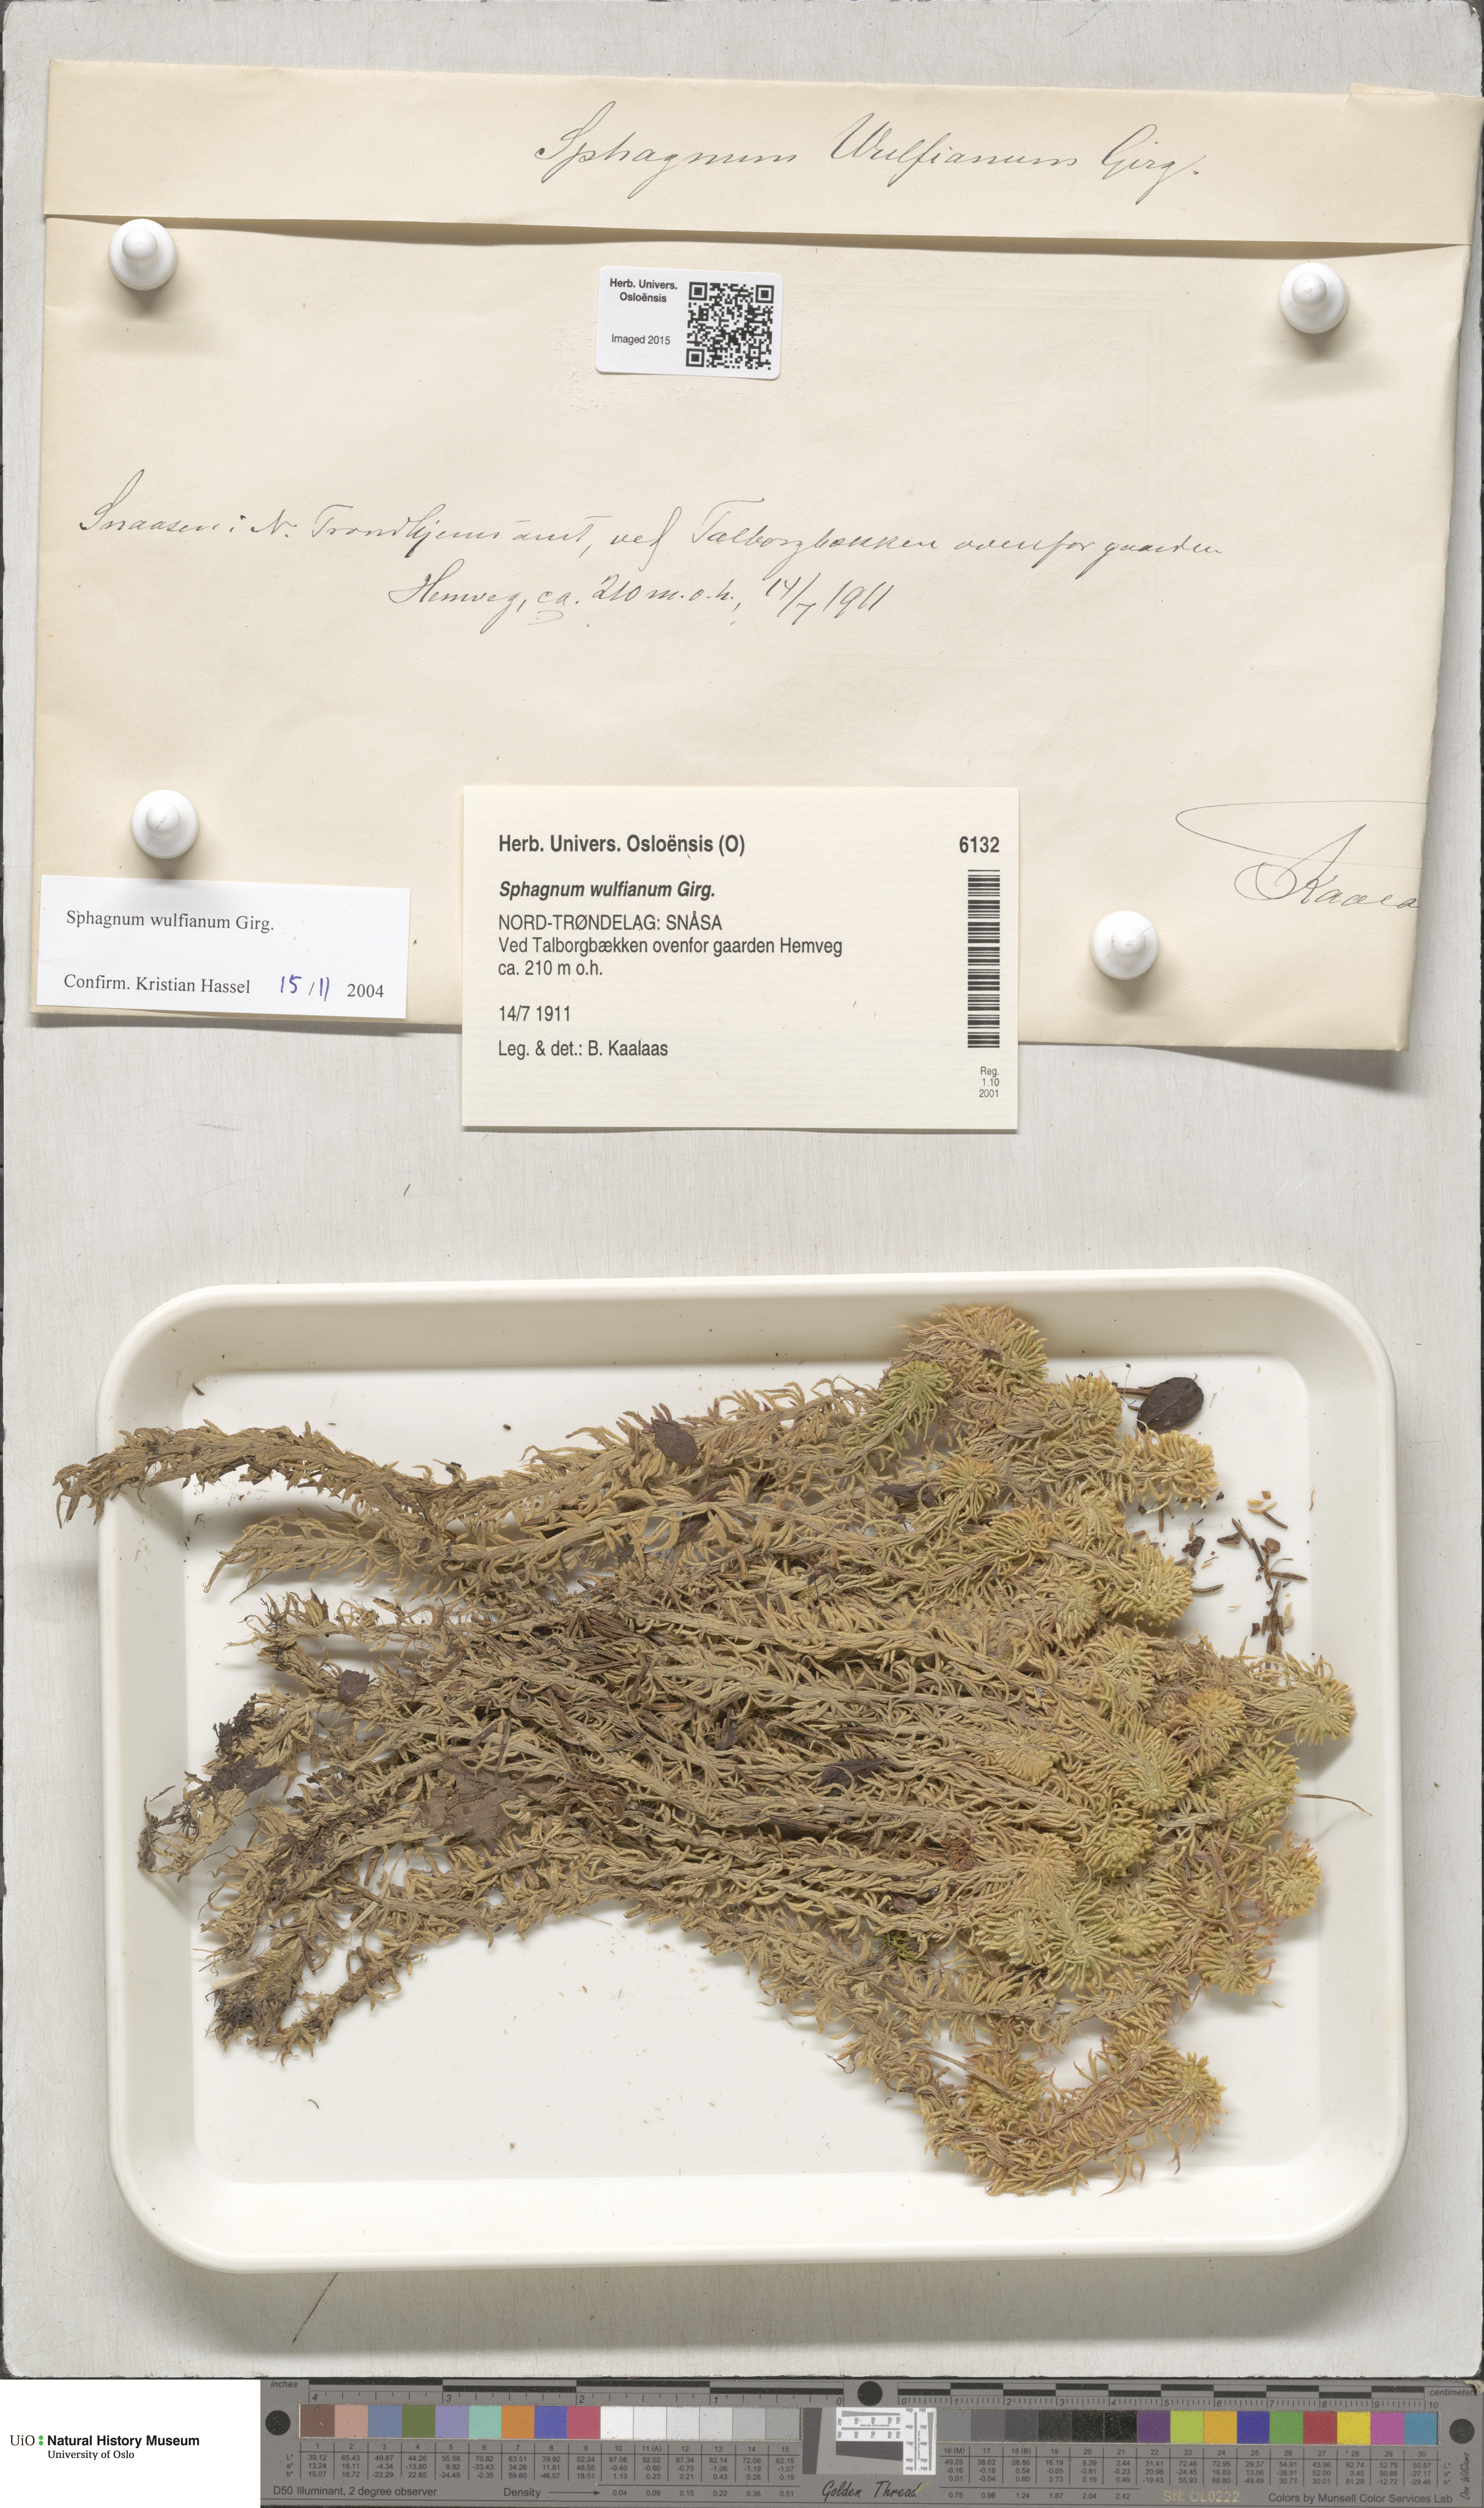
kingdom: Plantae
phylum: Bryophyta
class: Sphagnopsida
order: Sphagnales
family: Sphagnaceae
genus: Sphagnum
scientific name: Sphagnum wulfianum
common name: Wulf's peat moss
